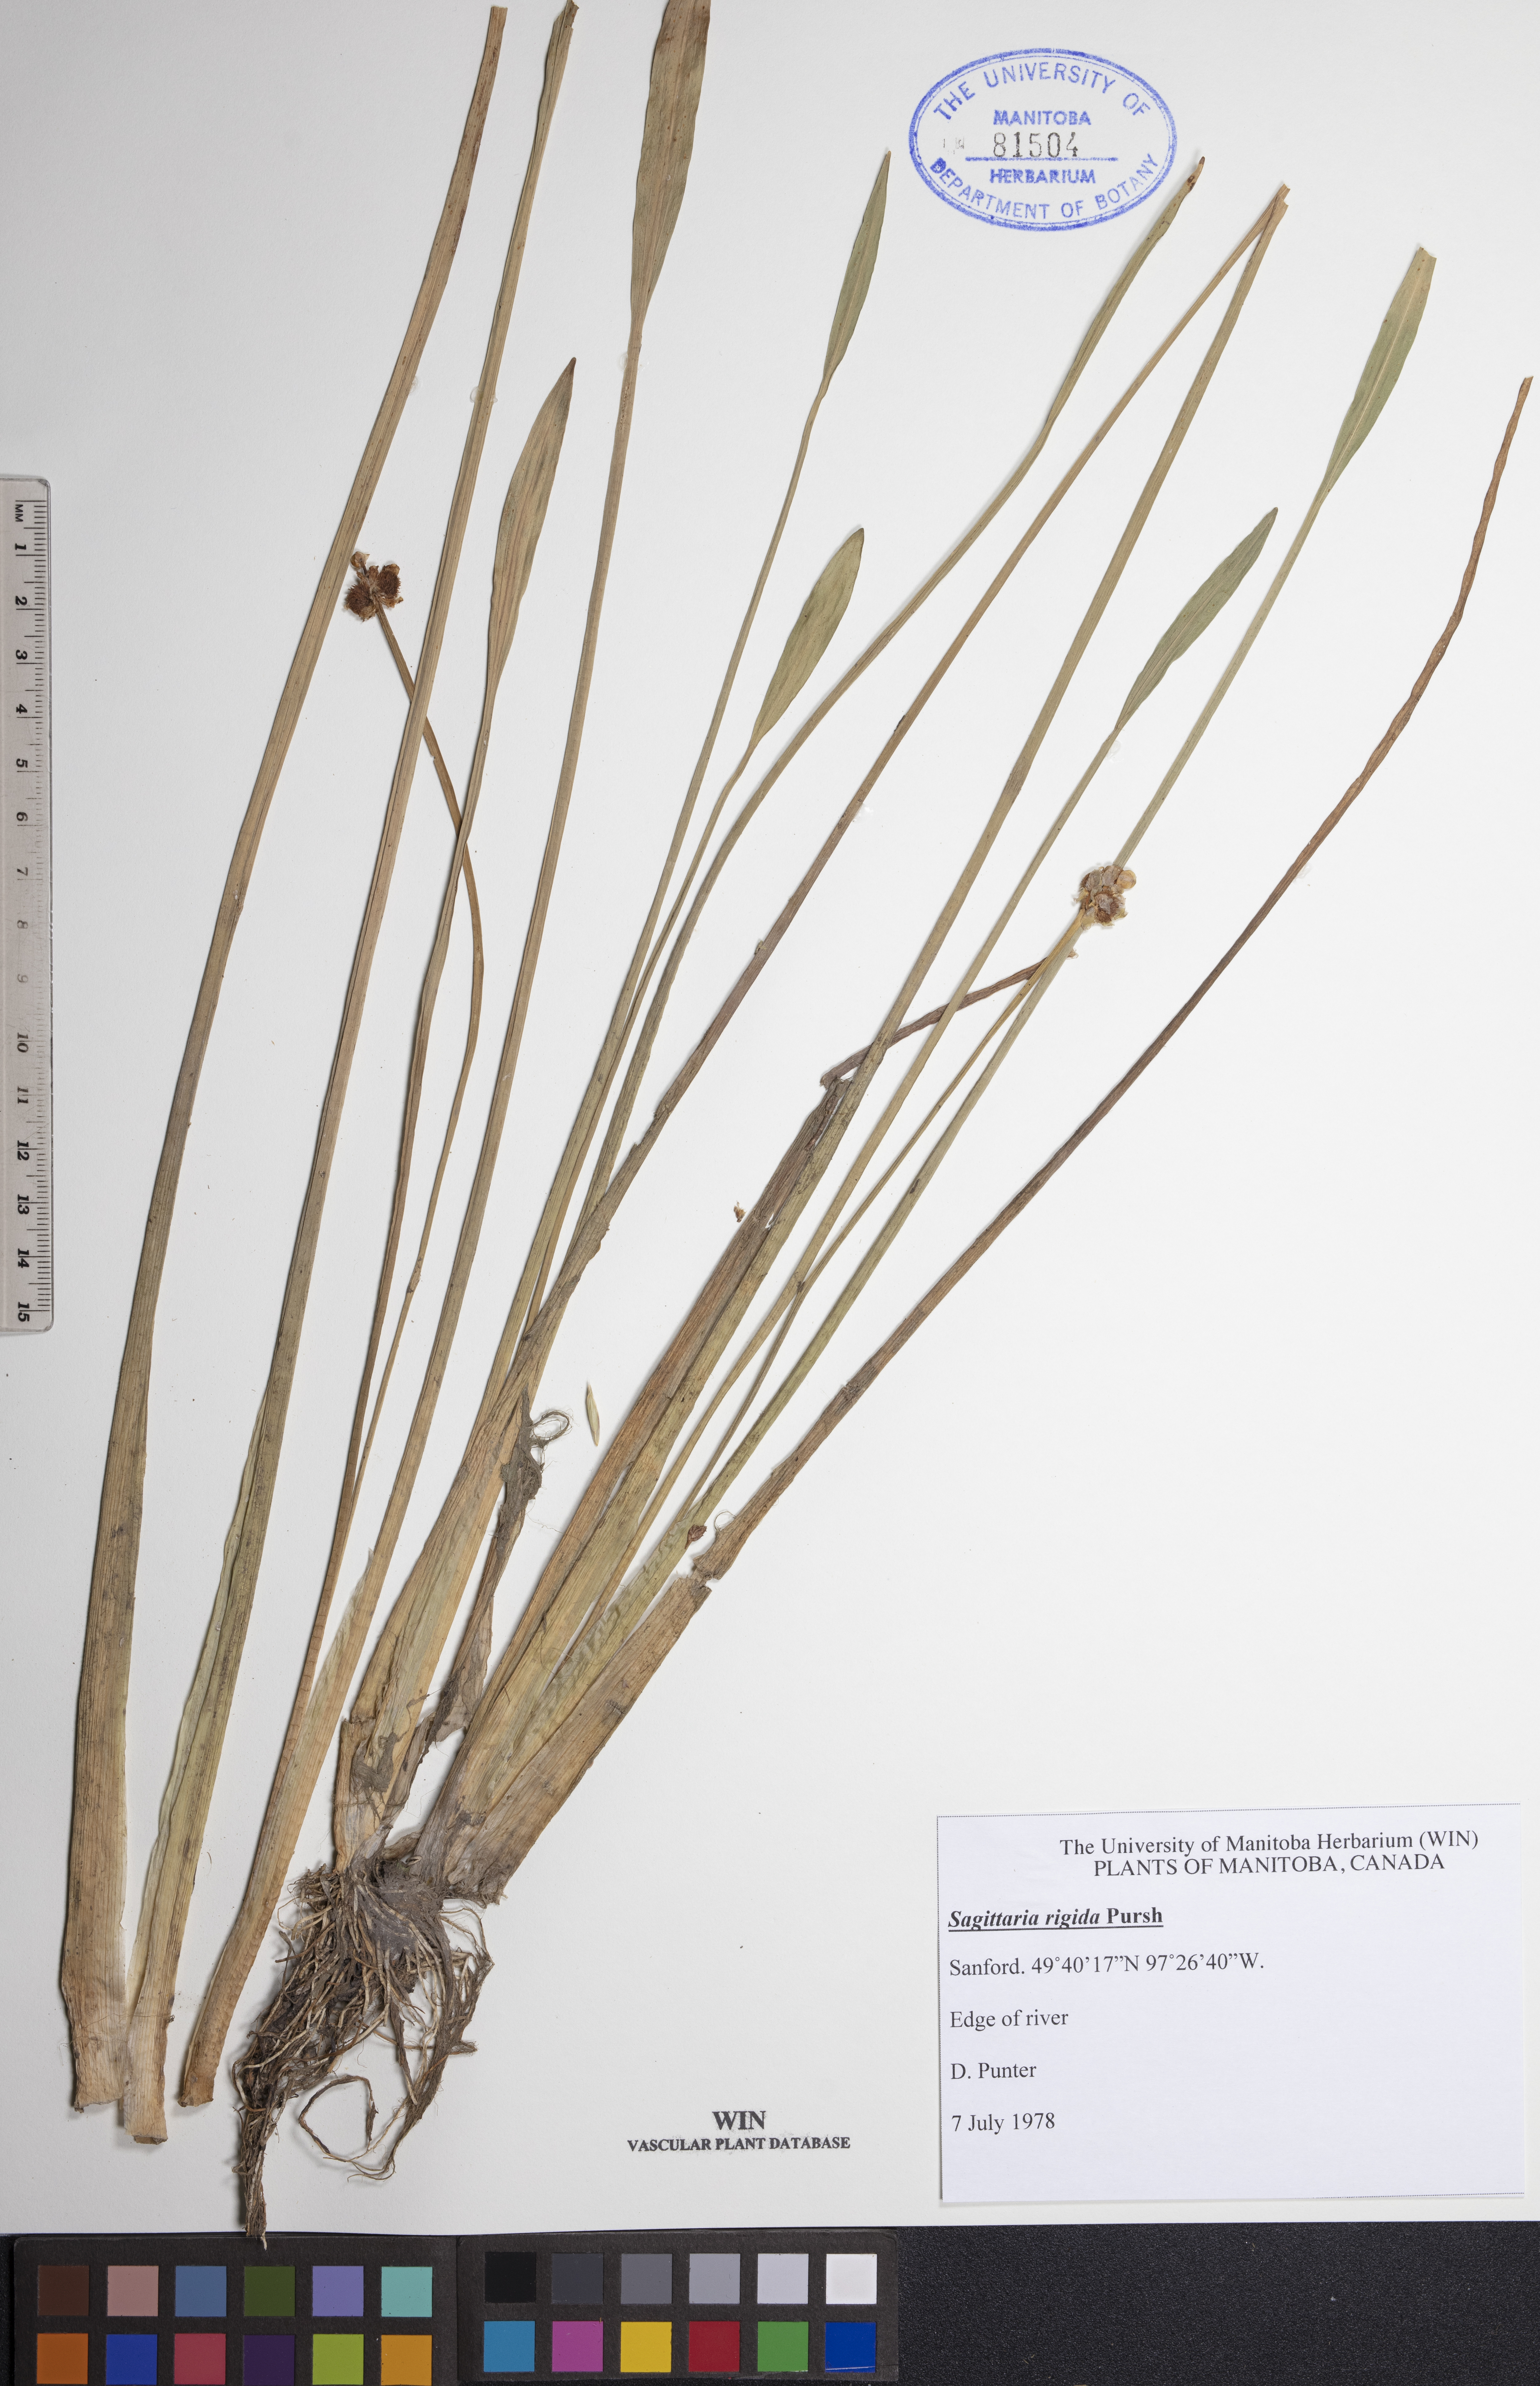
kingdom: Plantae
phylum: Tracheophyta
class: Liliopsida
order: Alismatales
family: Alismataceae
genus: Sagittaria
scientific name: Sagittaria rigida
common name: Canadian arrowhead
